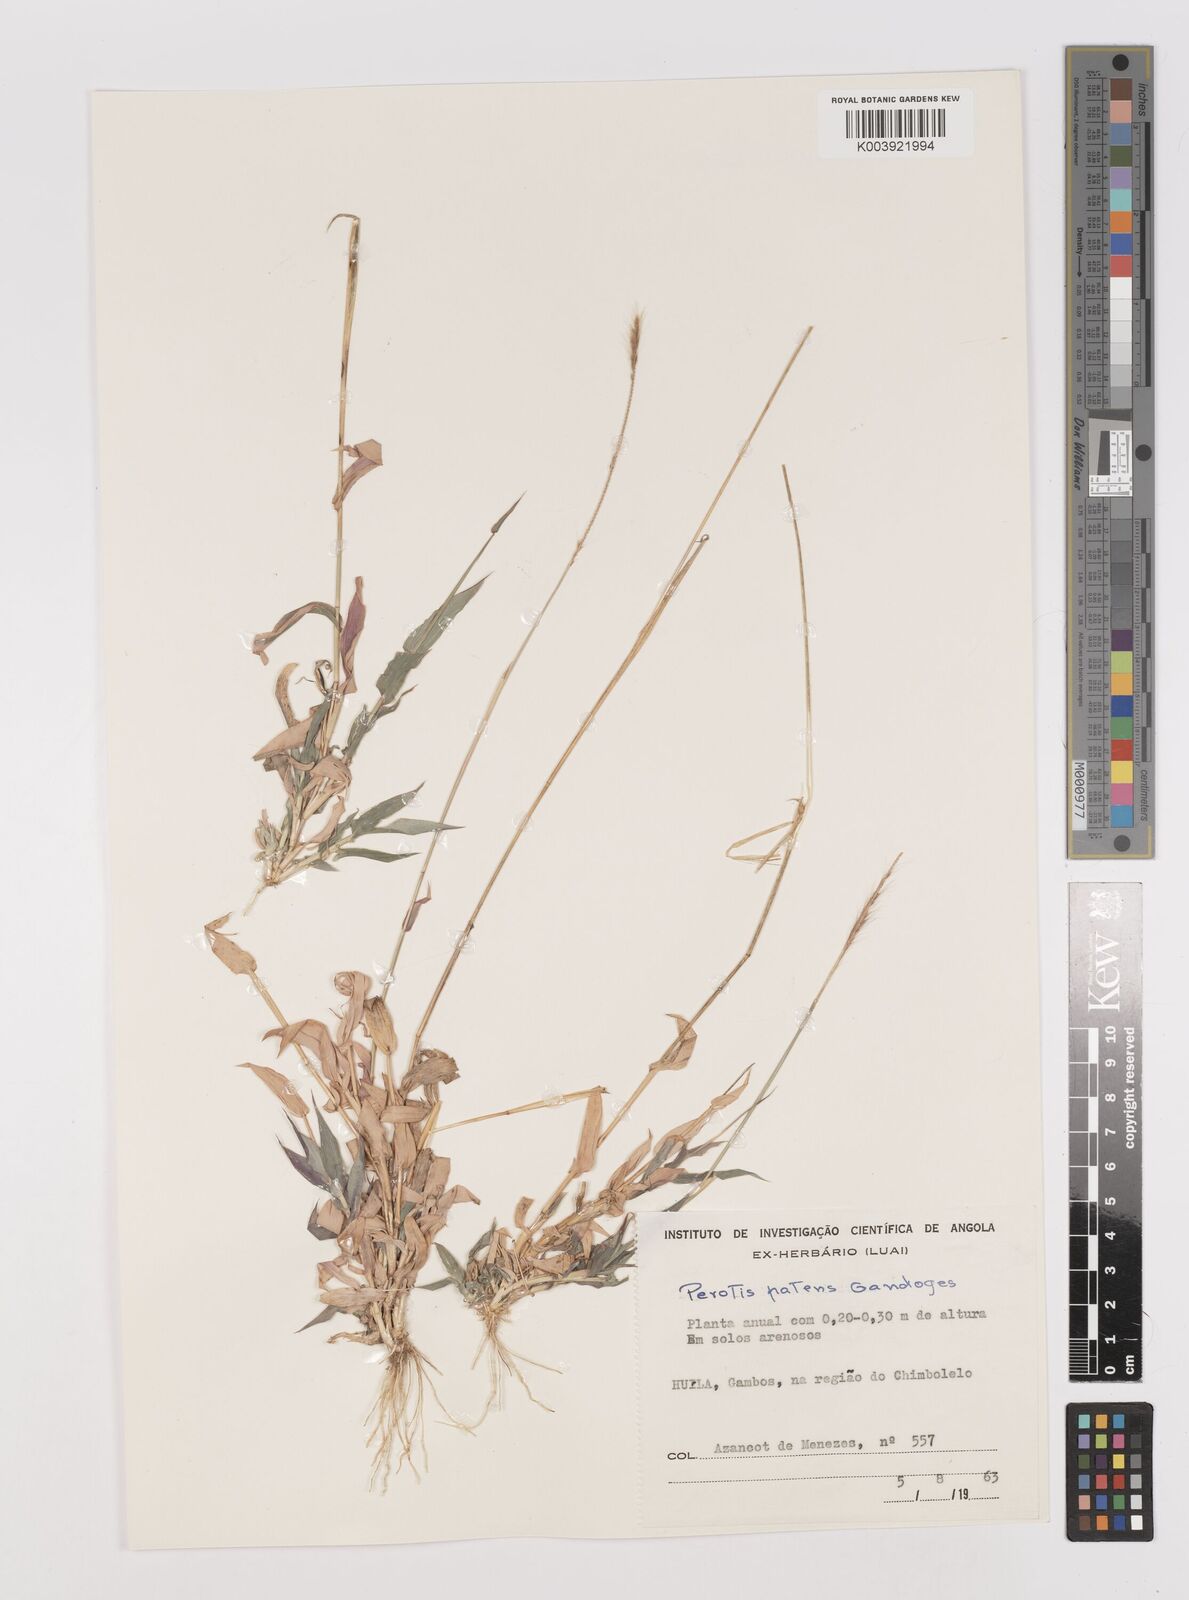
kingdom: Plantae
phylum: Tracheophyta
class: Liliopsida
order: Poales
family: Poaceae
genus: Perotis
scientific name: Perotis patens
